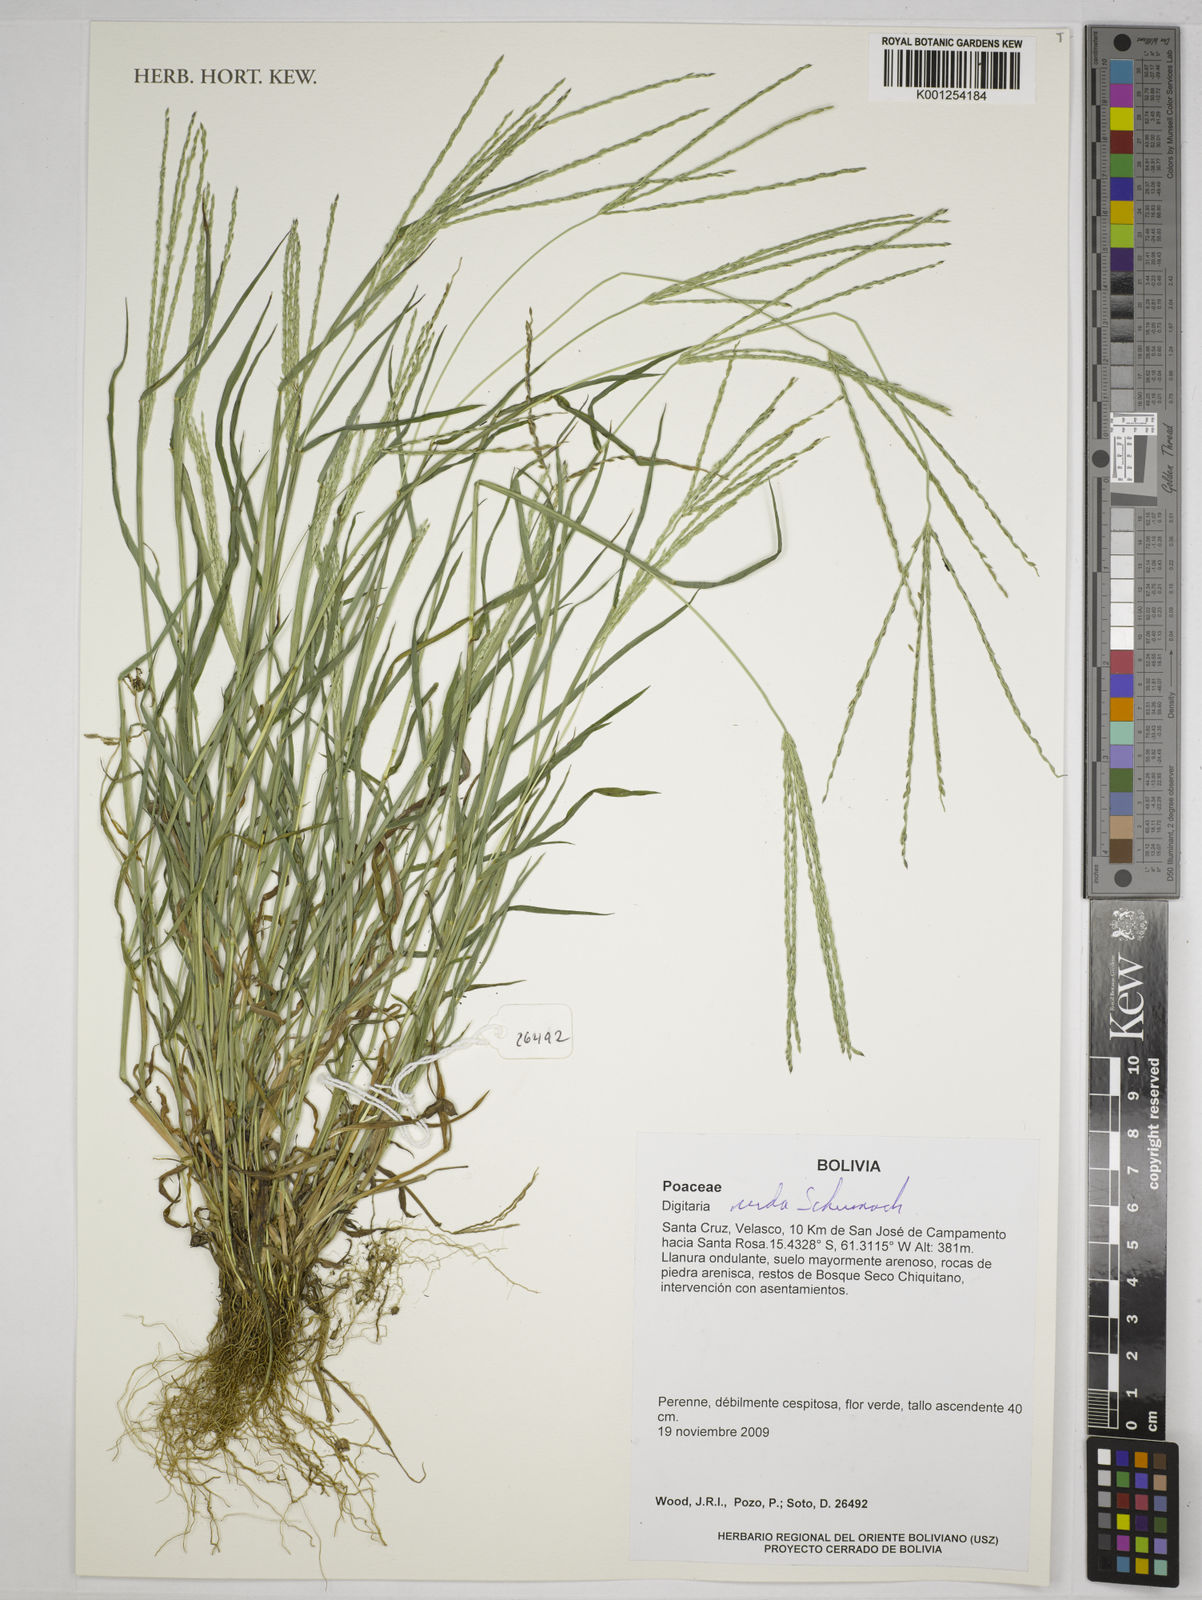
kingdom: Plantae
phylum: Tracheophyta
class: Liliopsida
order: Poales
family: Poaceae
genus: Digitaria
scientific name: Digitaria nuda
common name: Naked crabgrass
